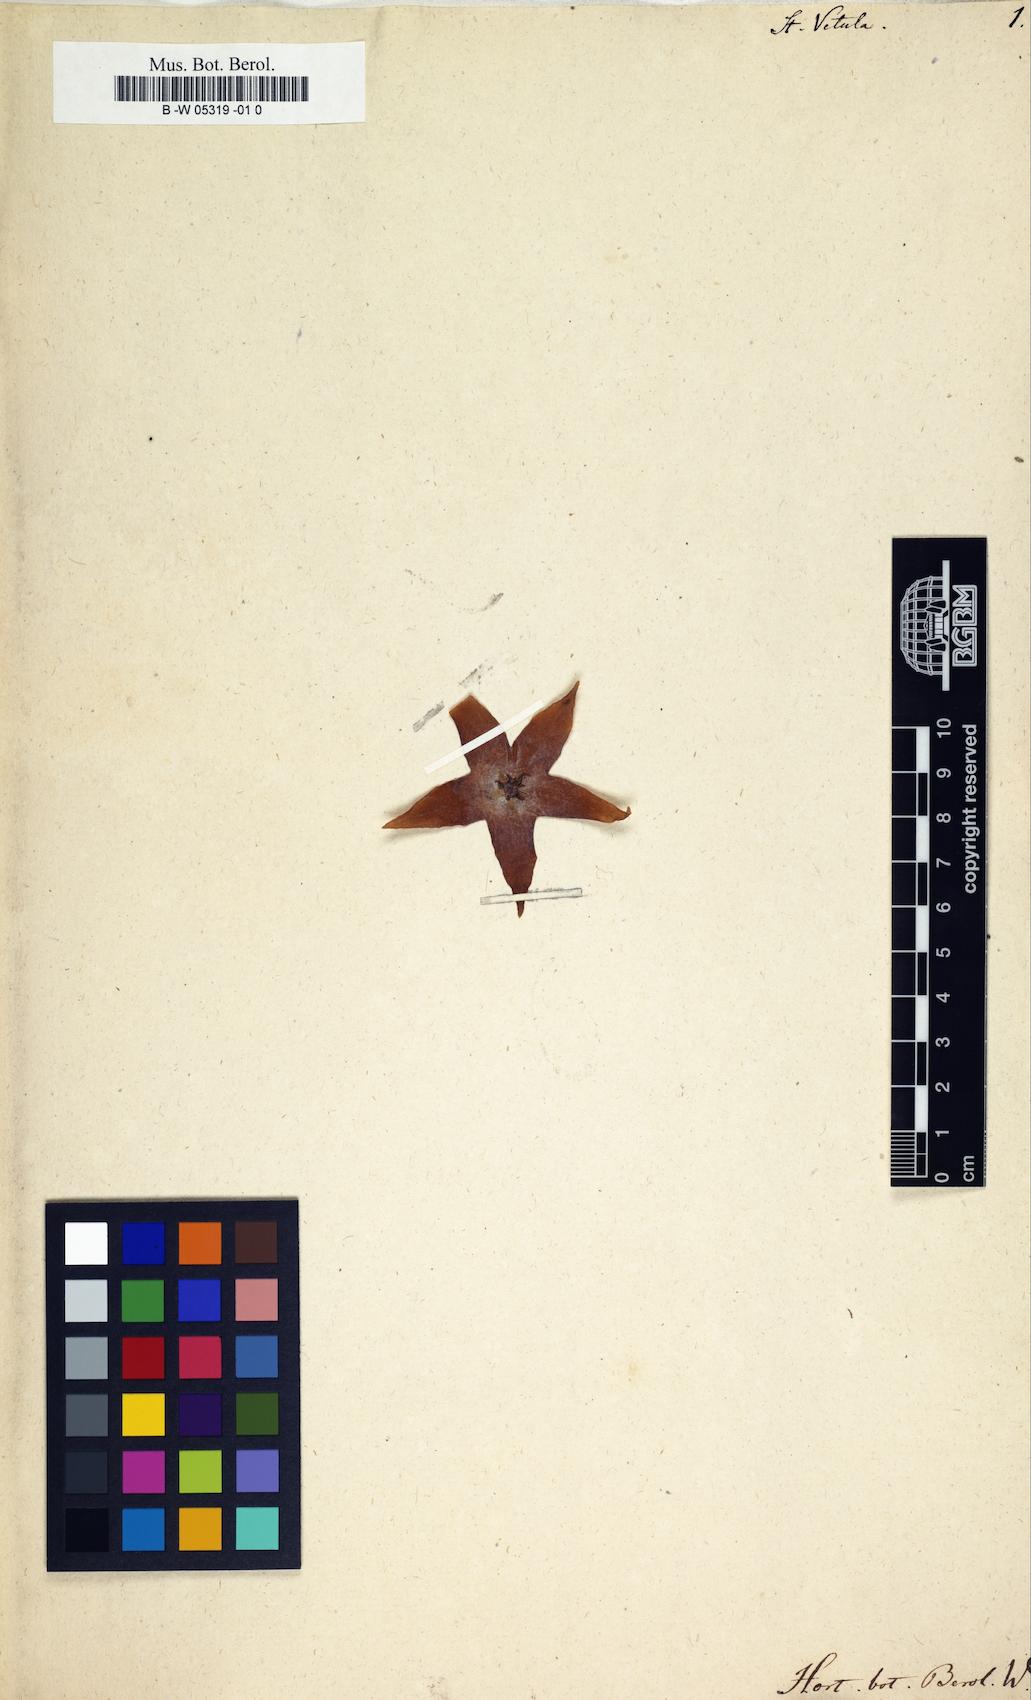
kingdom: Plantae
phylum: Tracheophyta
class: Magnoliopsida
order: Gentianales
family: Apocynaceae
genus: Stapelia
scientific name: Stapelia vetula
